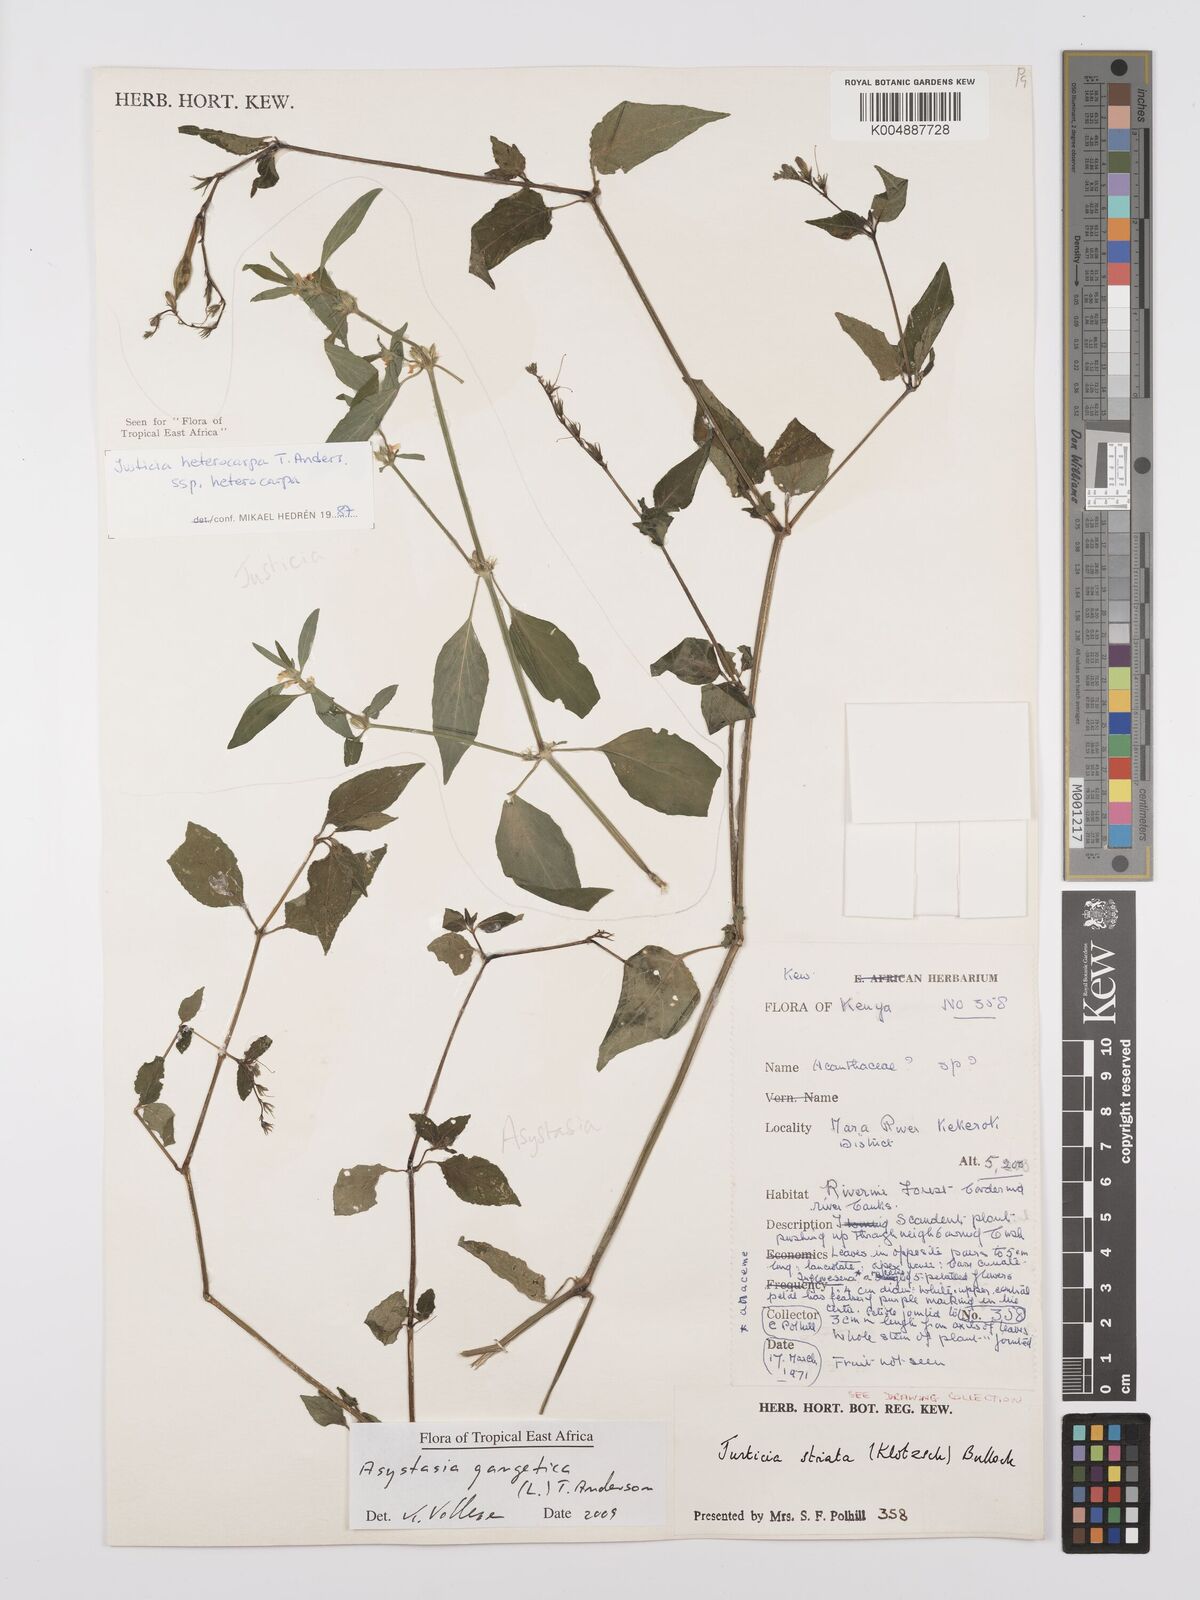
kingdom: Plantae
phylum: Tracheophyta
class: Magnoliopsida
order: Lamiales
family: Acanthaceae
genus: Asystasia
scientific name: Asystasia gangetica
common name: Chinese violet
